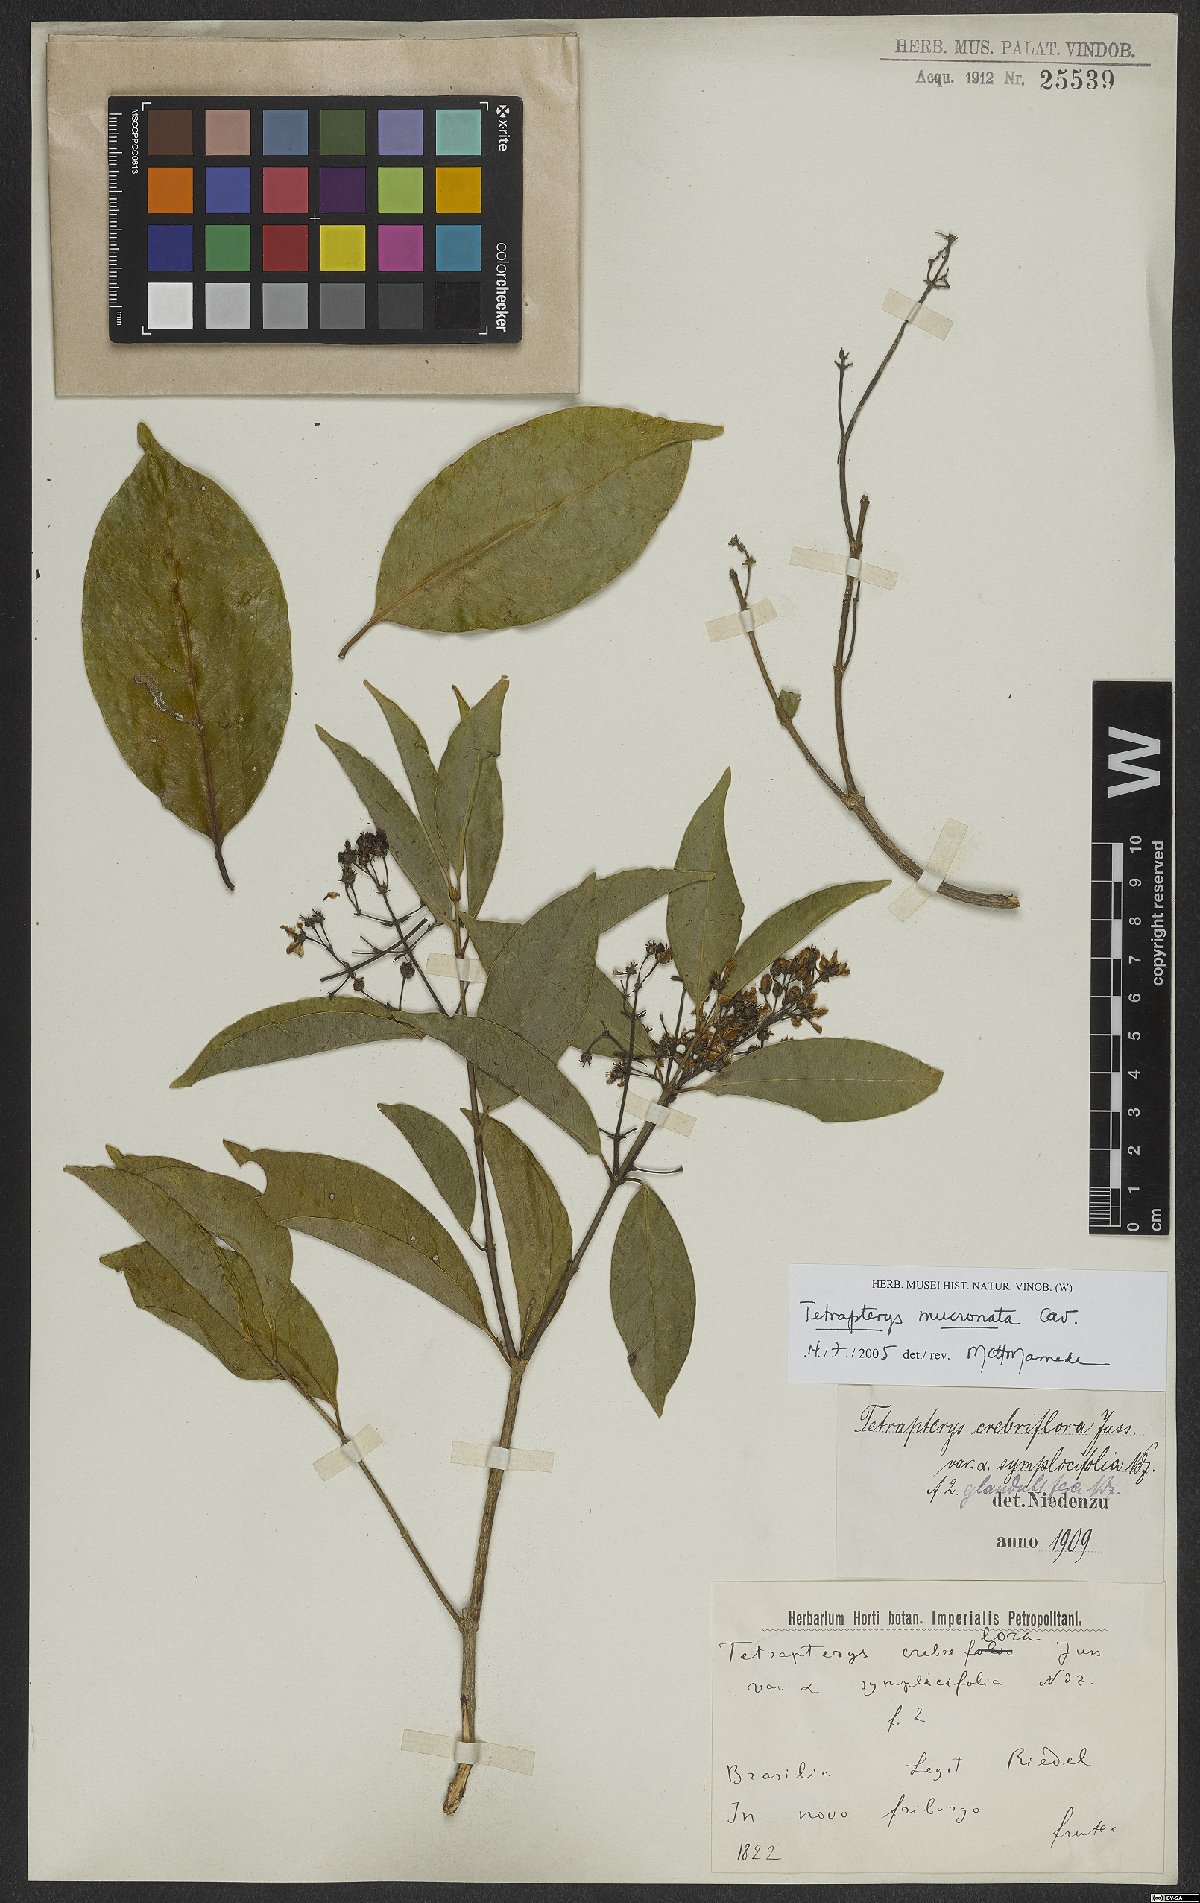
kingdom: Plantae
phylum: Tracheophyta
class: Magnoliopsida
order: Malpighiales
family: Malpighiaceae
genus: Tetrapterys
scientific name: Tetrapterys mucronata
